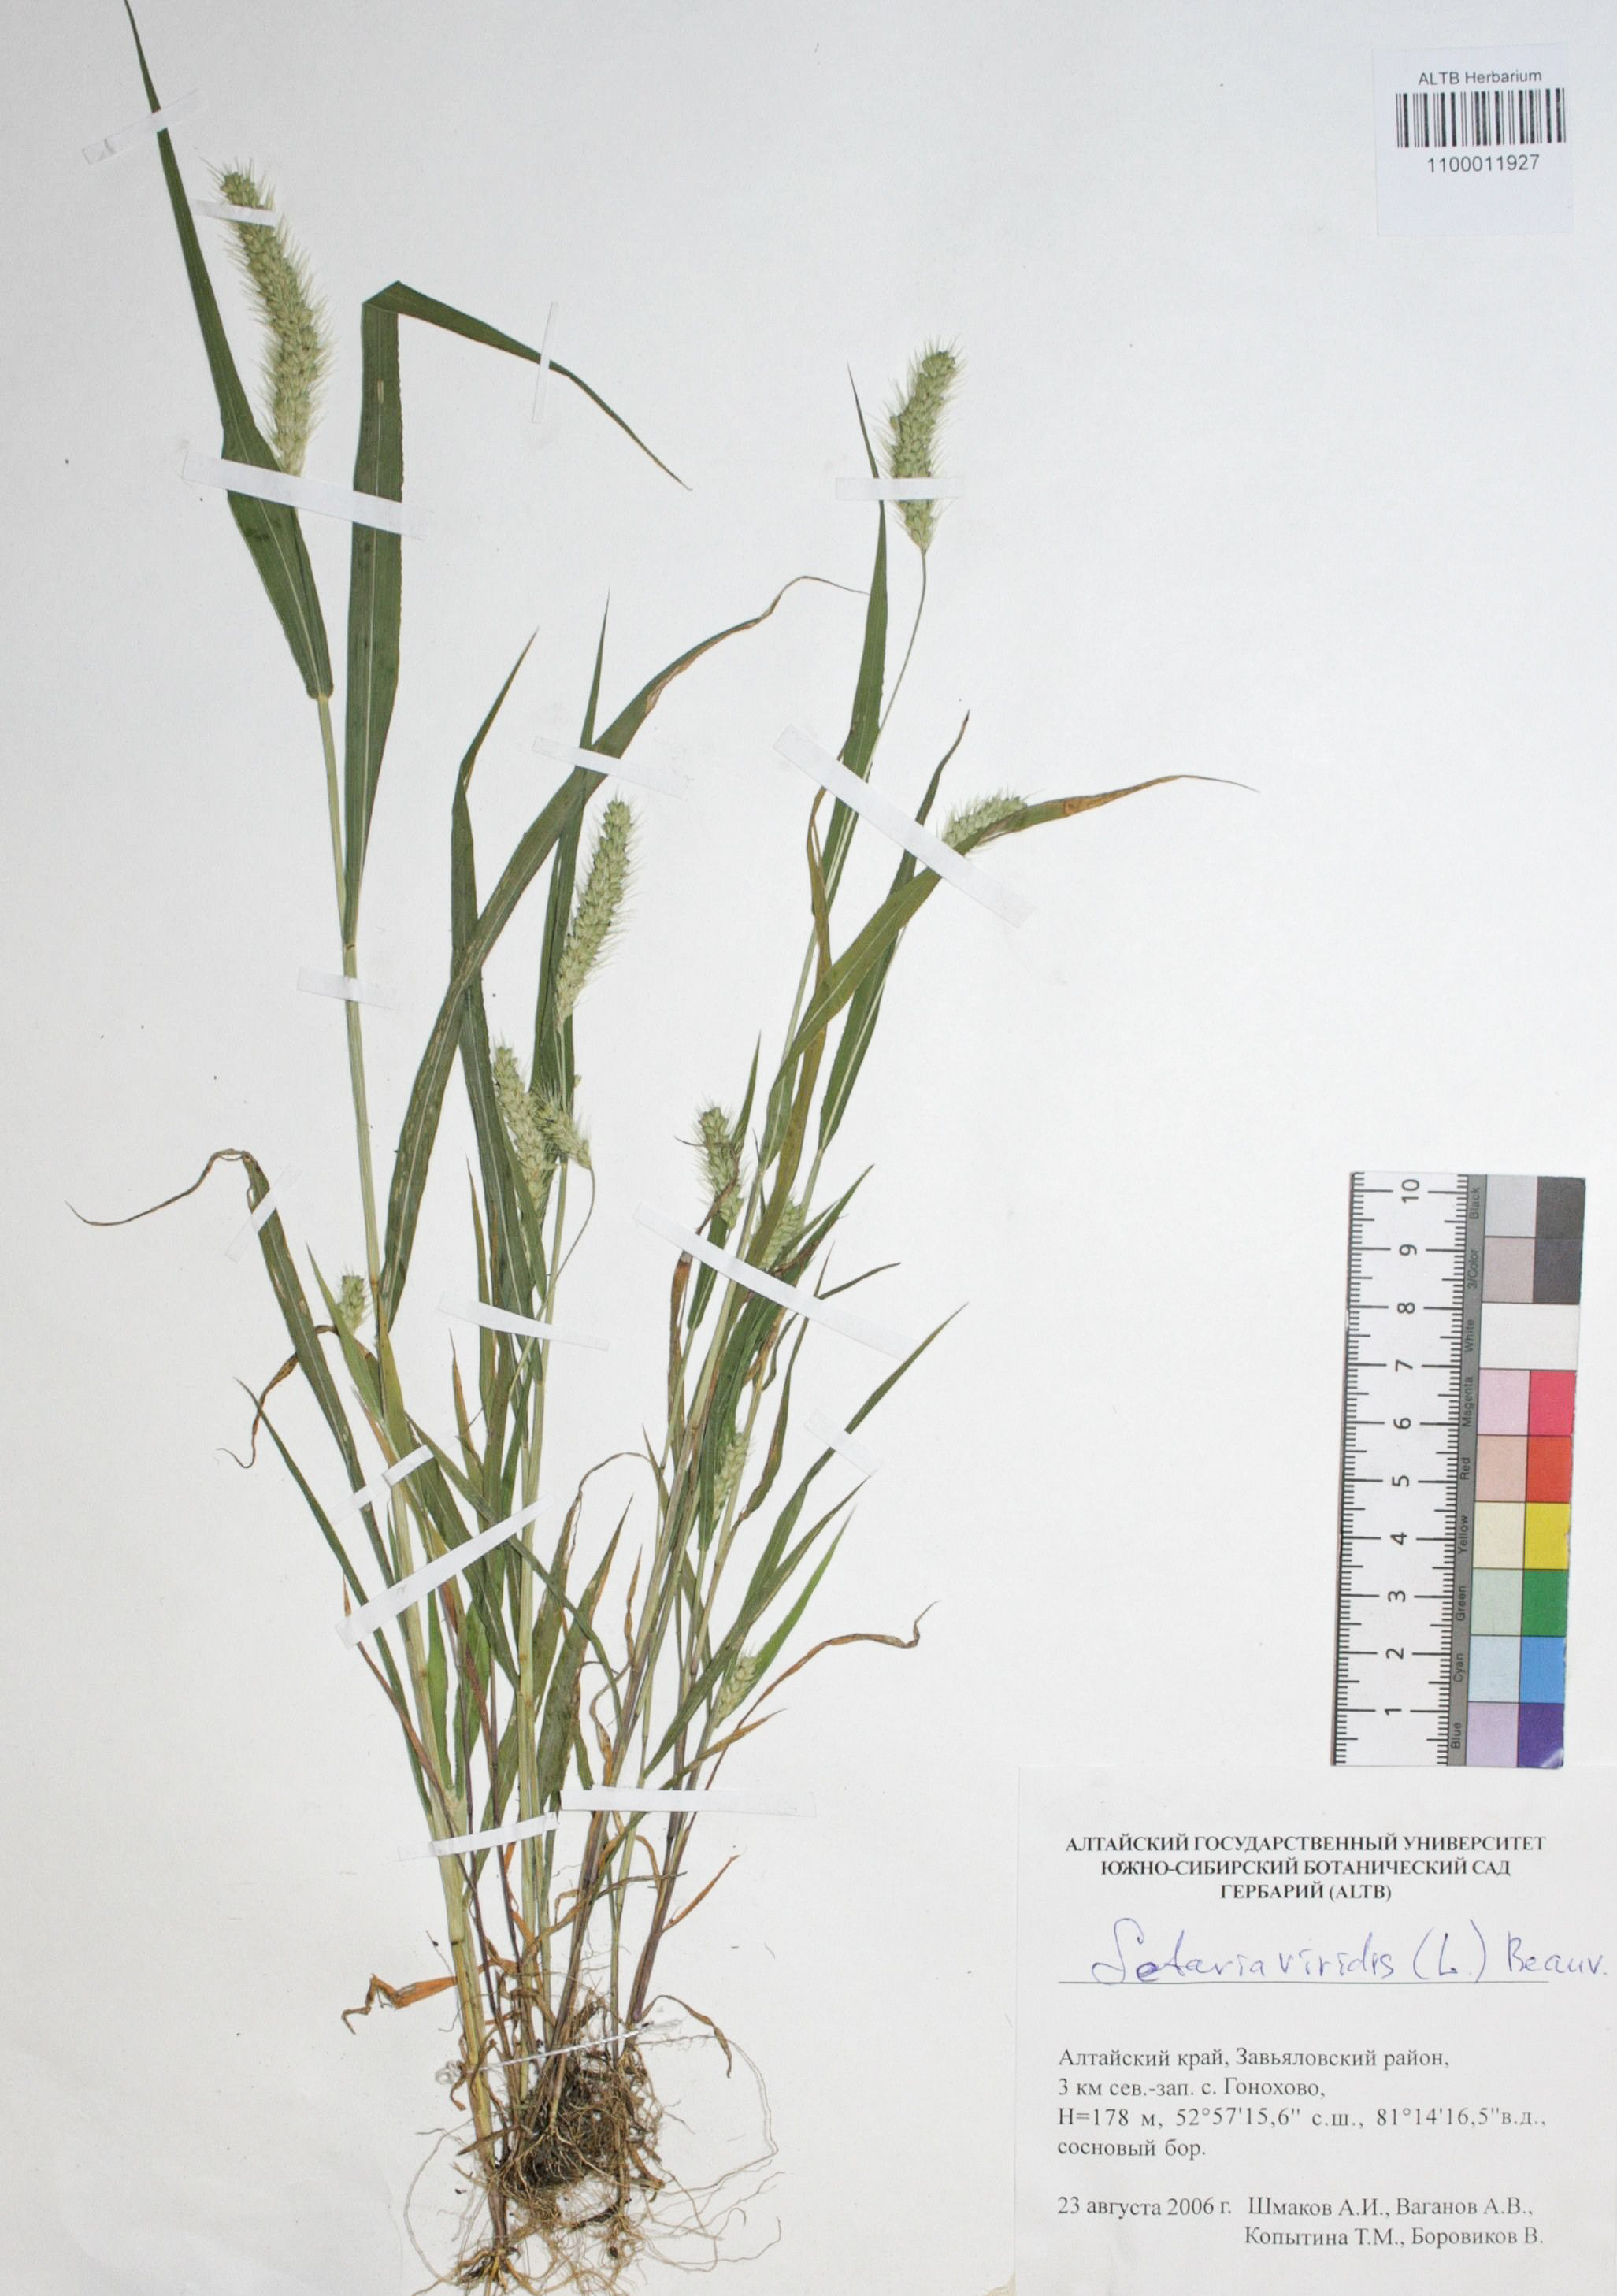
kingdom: Plantae
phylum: Tracheophyta
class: Liliopsida
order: Poales
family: Poaceae
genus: Setaria
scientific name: Setaria viridis
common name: Green bristlegrass
